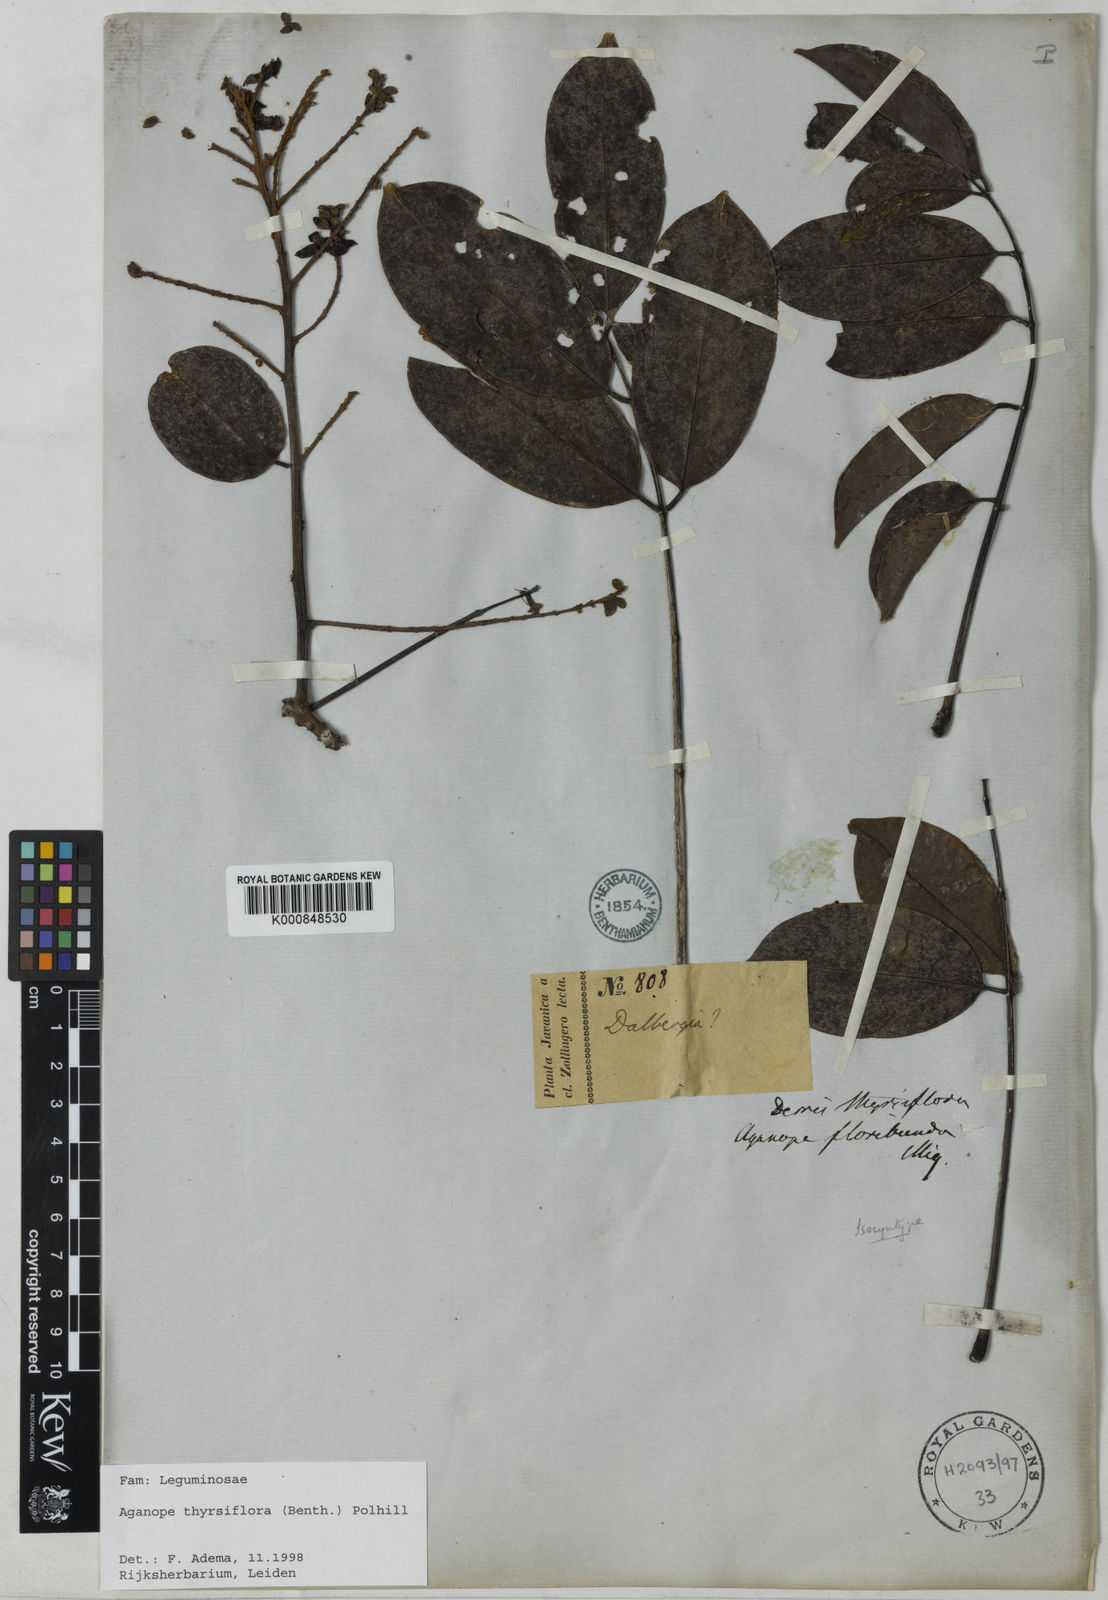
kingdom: Plantae
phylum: Tracheophyta
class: Magnoliopsida
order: Fabales
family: Fabaceae
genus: Aganope
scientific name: Aganope thyrsiflora
